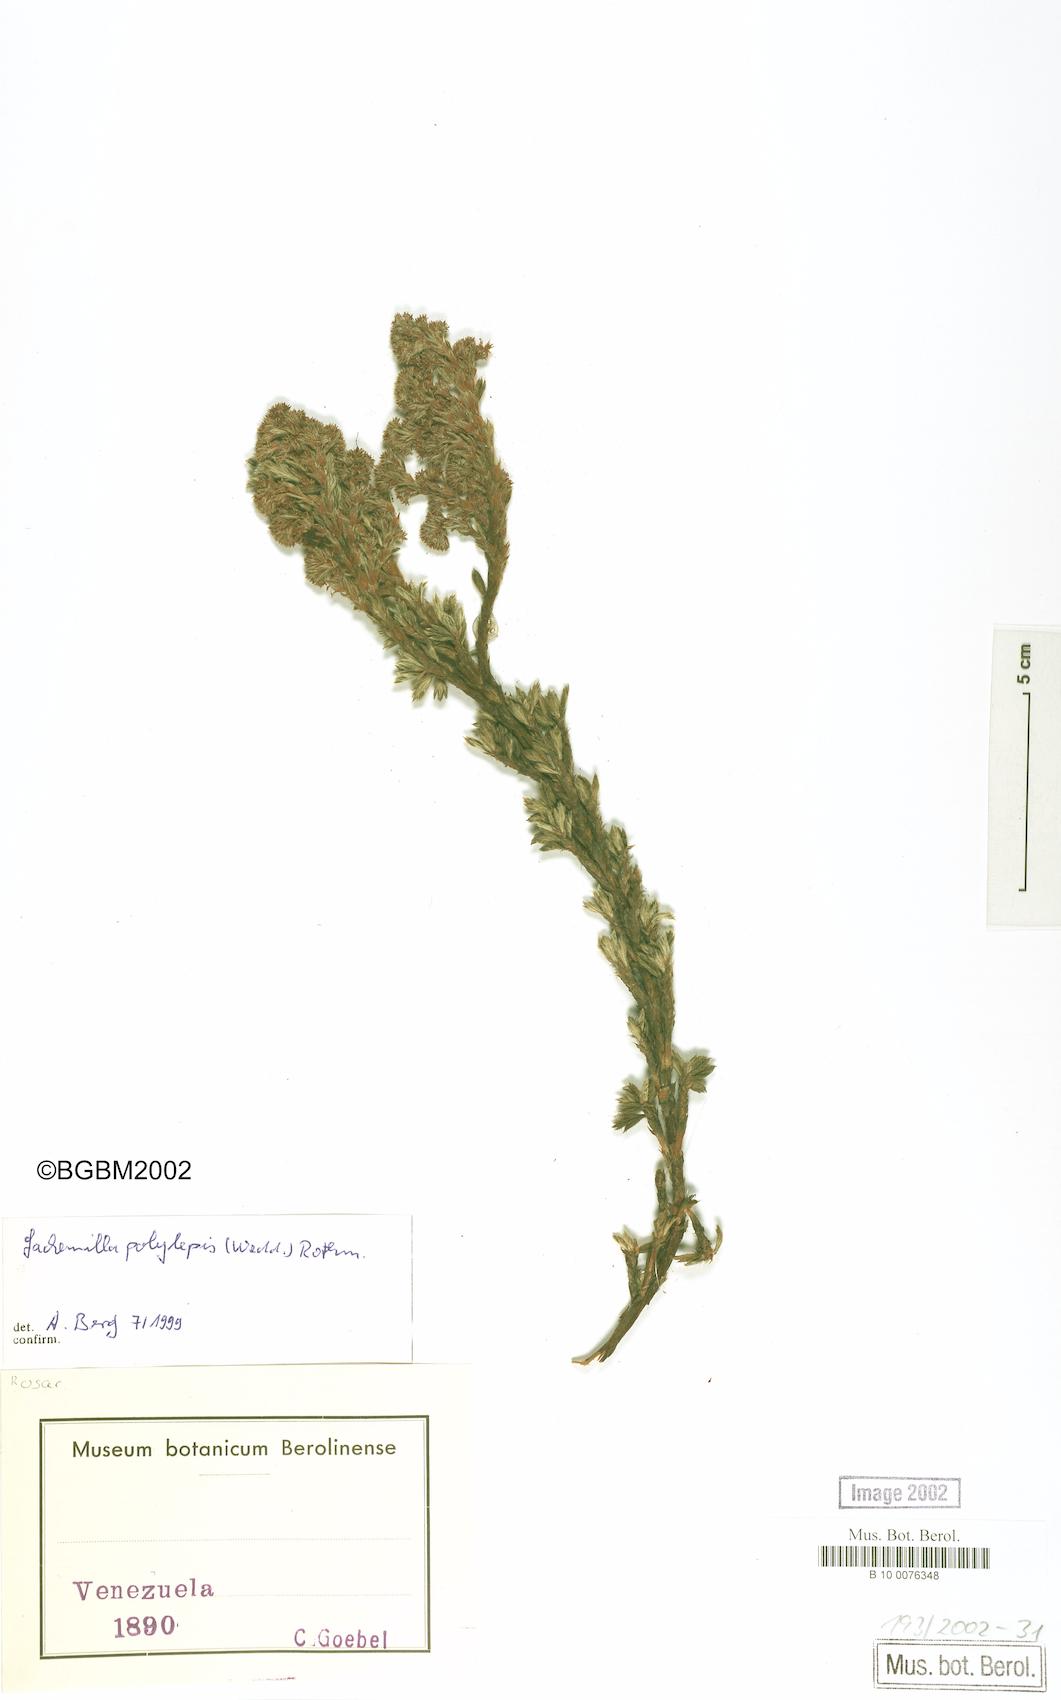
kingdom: Plantae
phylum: Tracheophyta
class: Magnoliopsida
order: Rosales
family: Rosaceae
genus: Lachemilla
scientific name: Lachemilla polylepis
